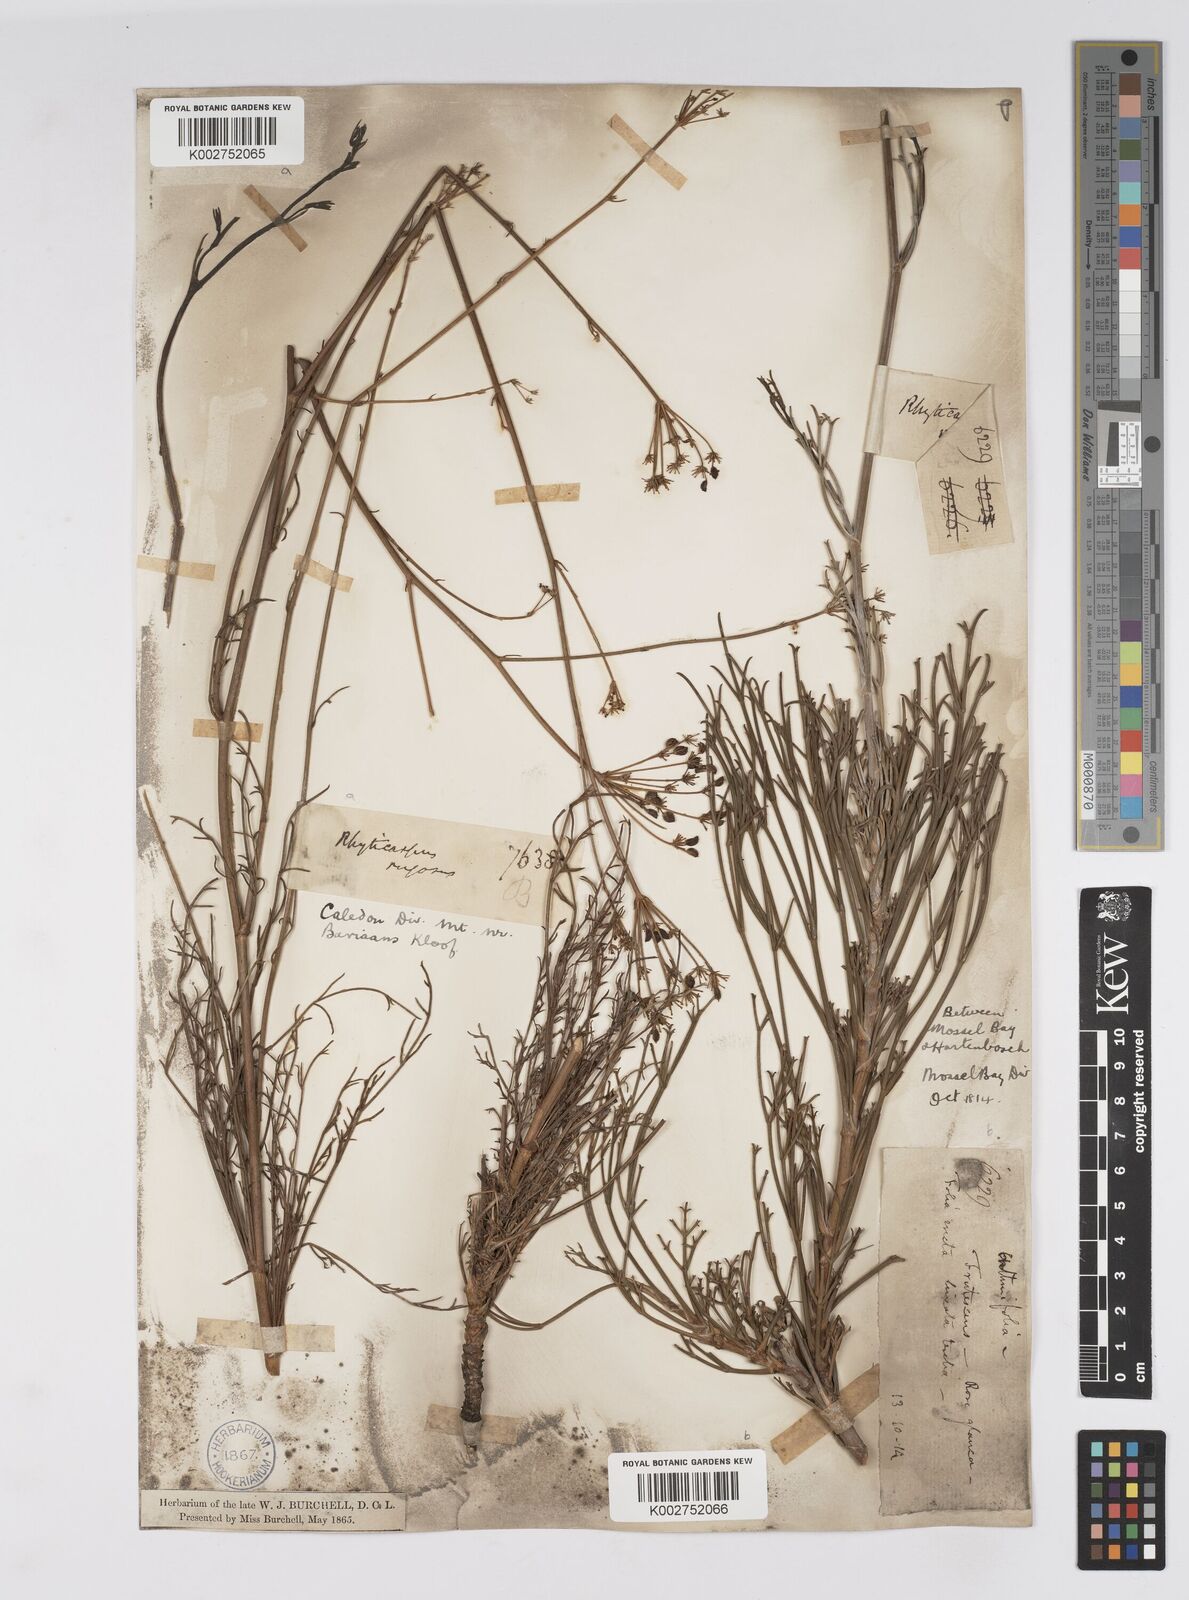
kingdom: Plantae
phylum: Tracheophyta
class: Magnoliopsida
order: Apiales
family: Apiaceae
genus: Anginon
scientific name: Anginon rugosum
